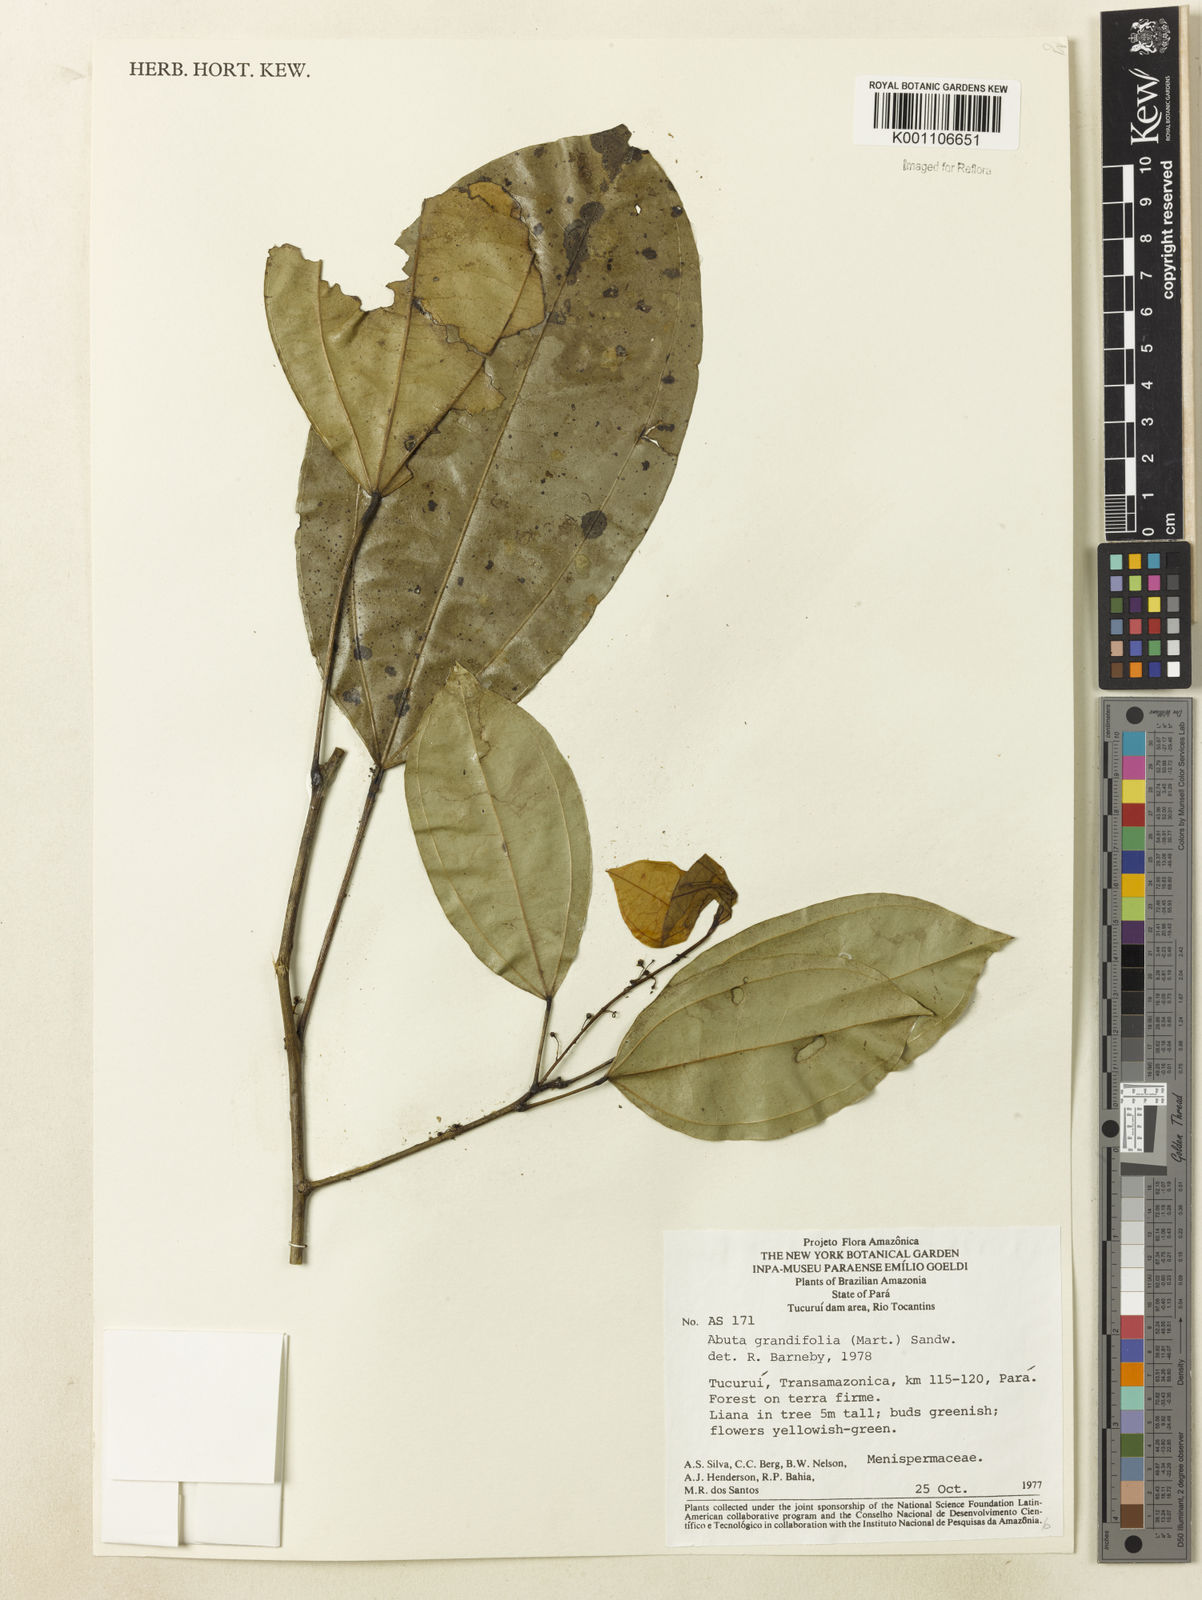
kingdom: Plantae
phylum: Tracheophyta
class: Magnoliopsida
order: Ranunculales
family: Menispermaceae
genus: Abuta
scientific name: Abuta grandifolia
